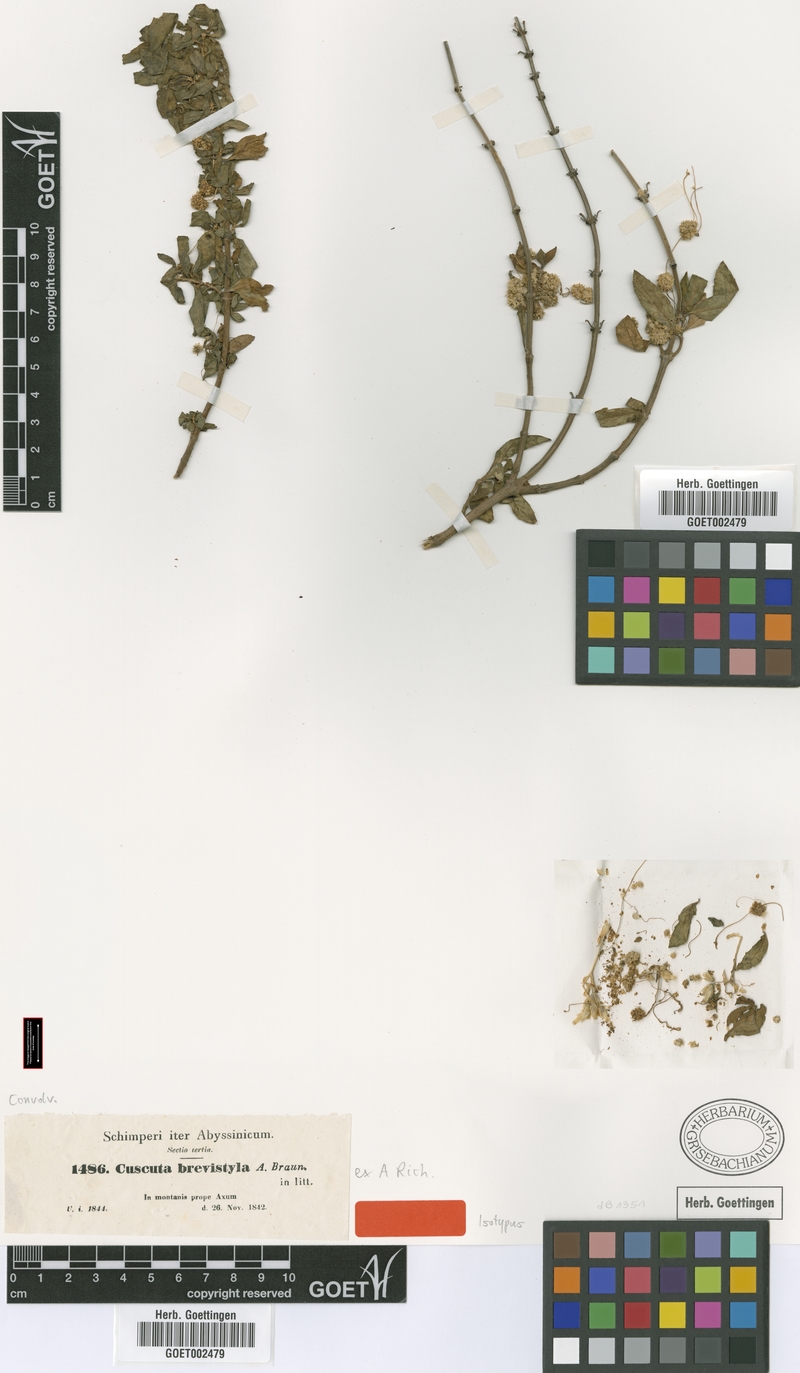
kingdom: Plantae
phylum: Tracheophyta
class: Magnoliopsida
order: Solanales
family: Convolvulaceae
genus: Cuscuta
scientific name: Cuscuta brevistyla
